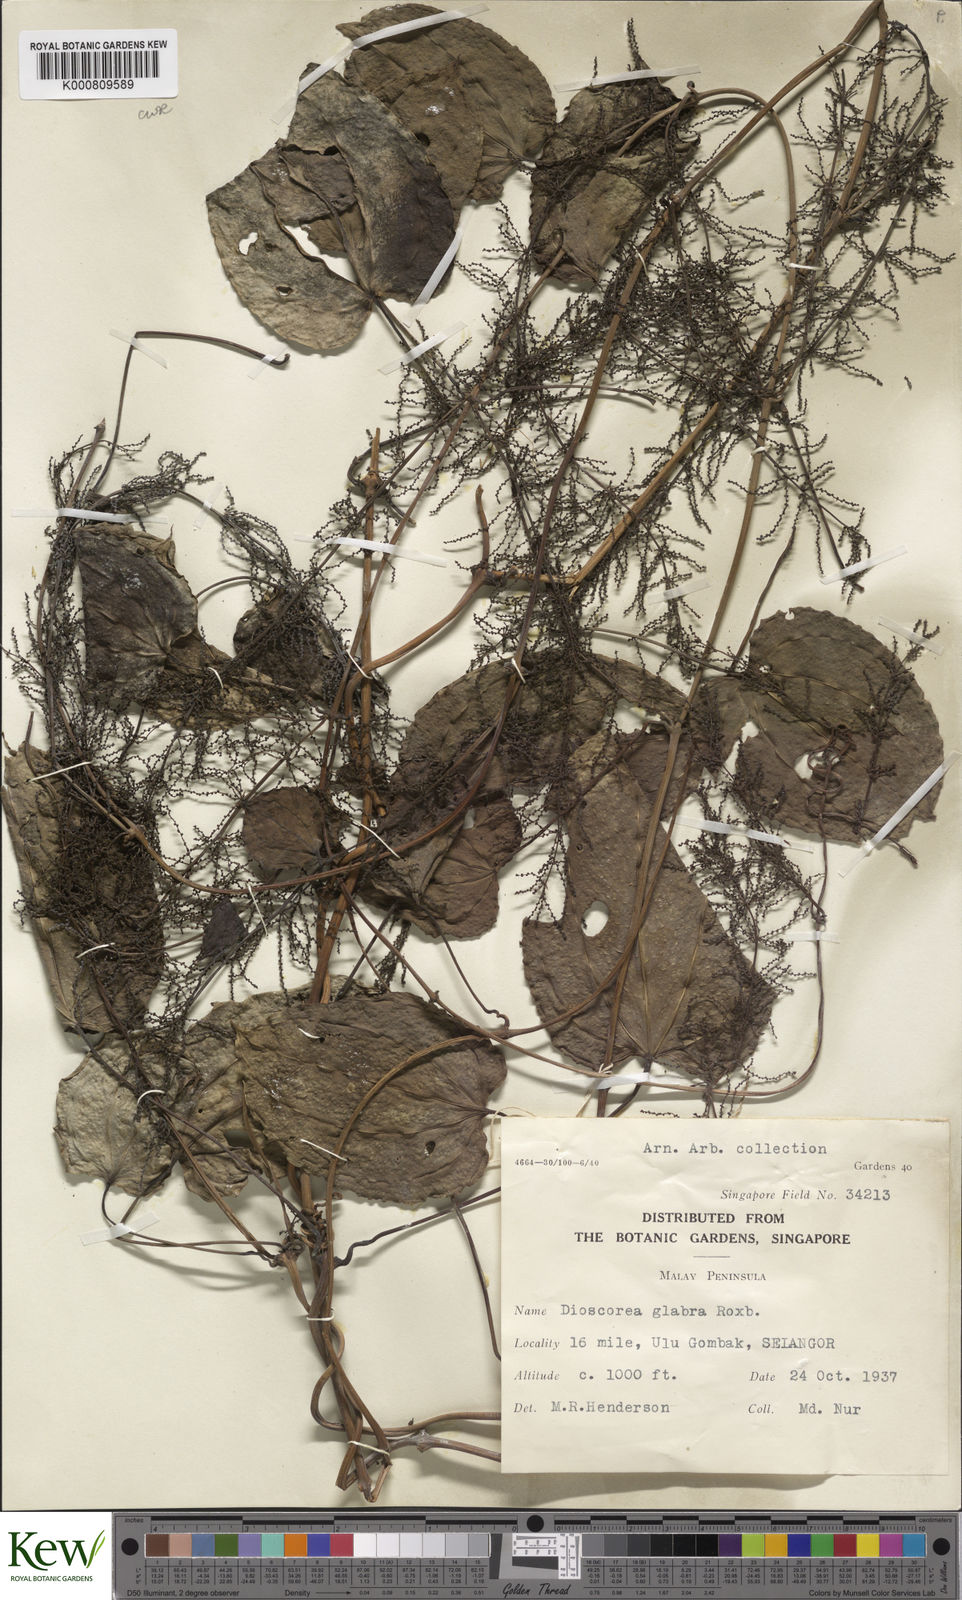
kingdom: Plantae
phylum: Tracheophyta
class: Liliopsida
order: Dioscoreales
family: Dioscoreaceae
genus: Dioscorea
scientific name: Dioscorea glabra
